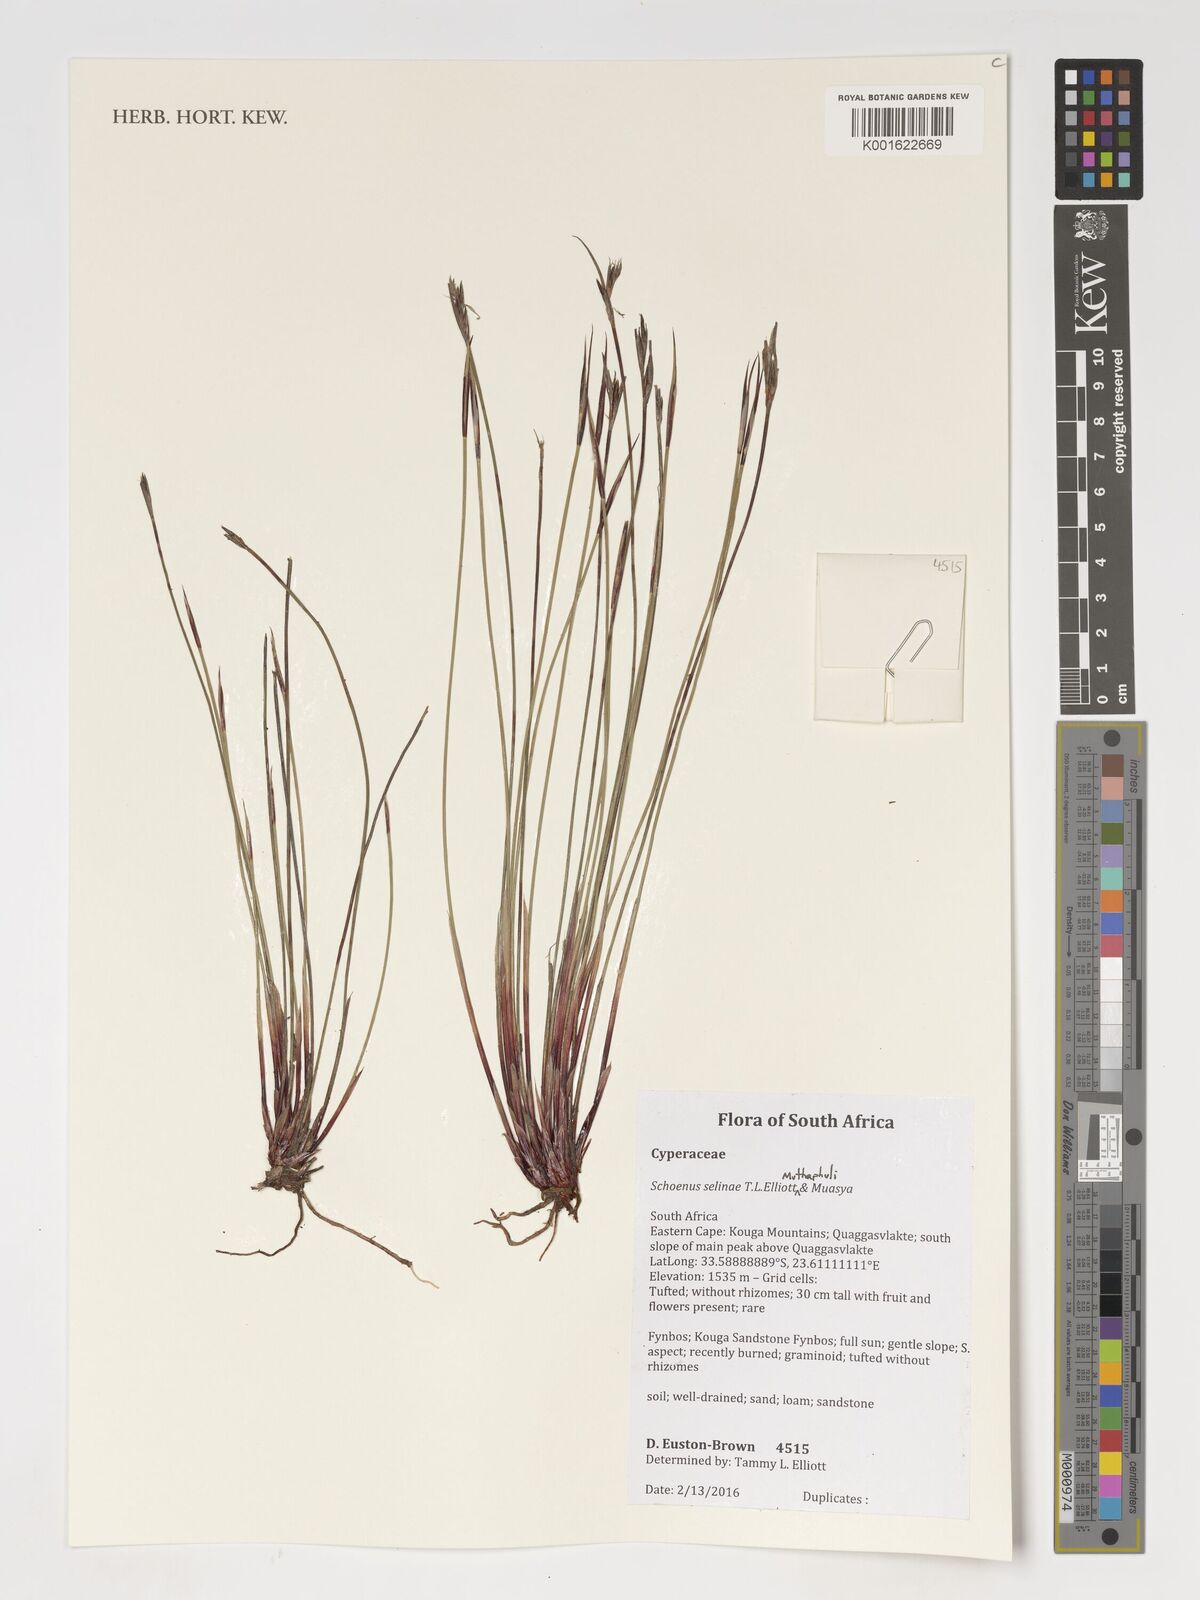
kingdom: Plantae
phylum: Tracheophyta
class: Liliopsida
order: Poales
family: Cyperaceae
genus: Schoenus
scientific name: Schoenus
